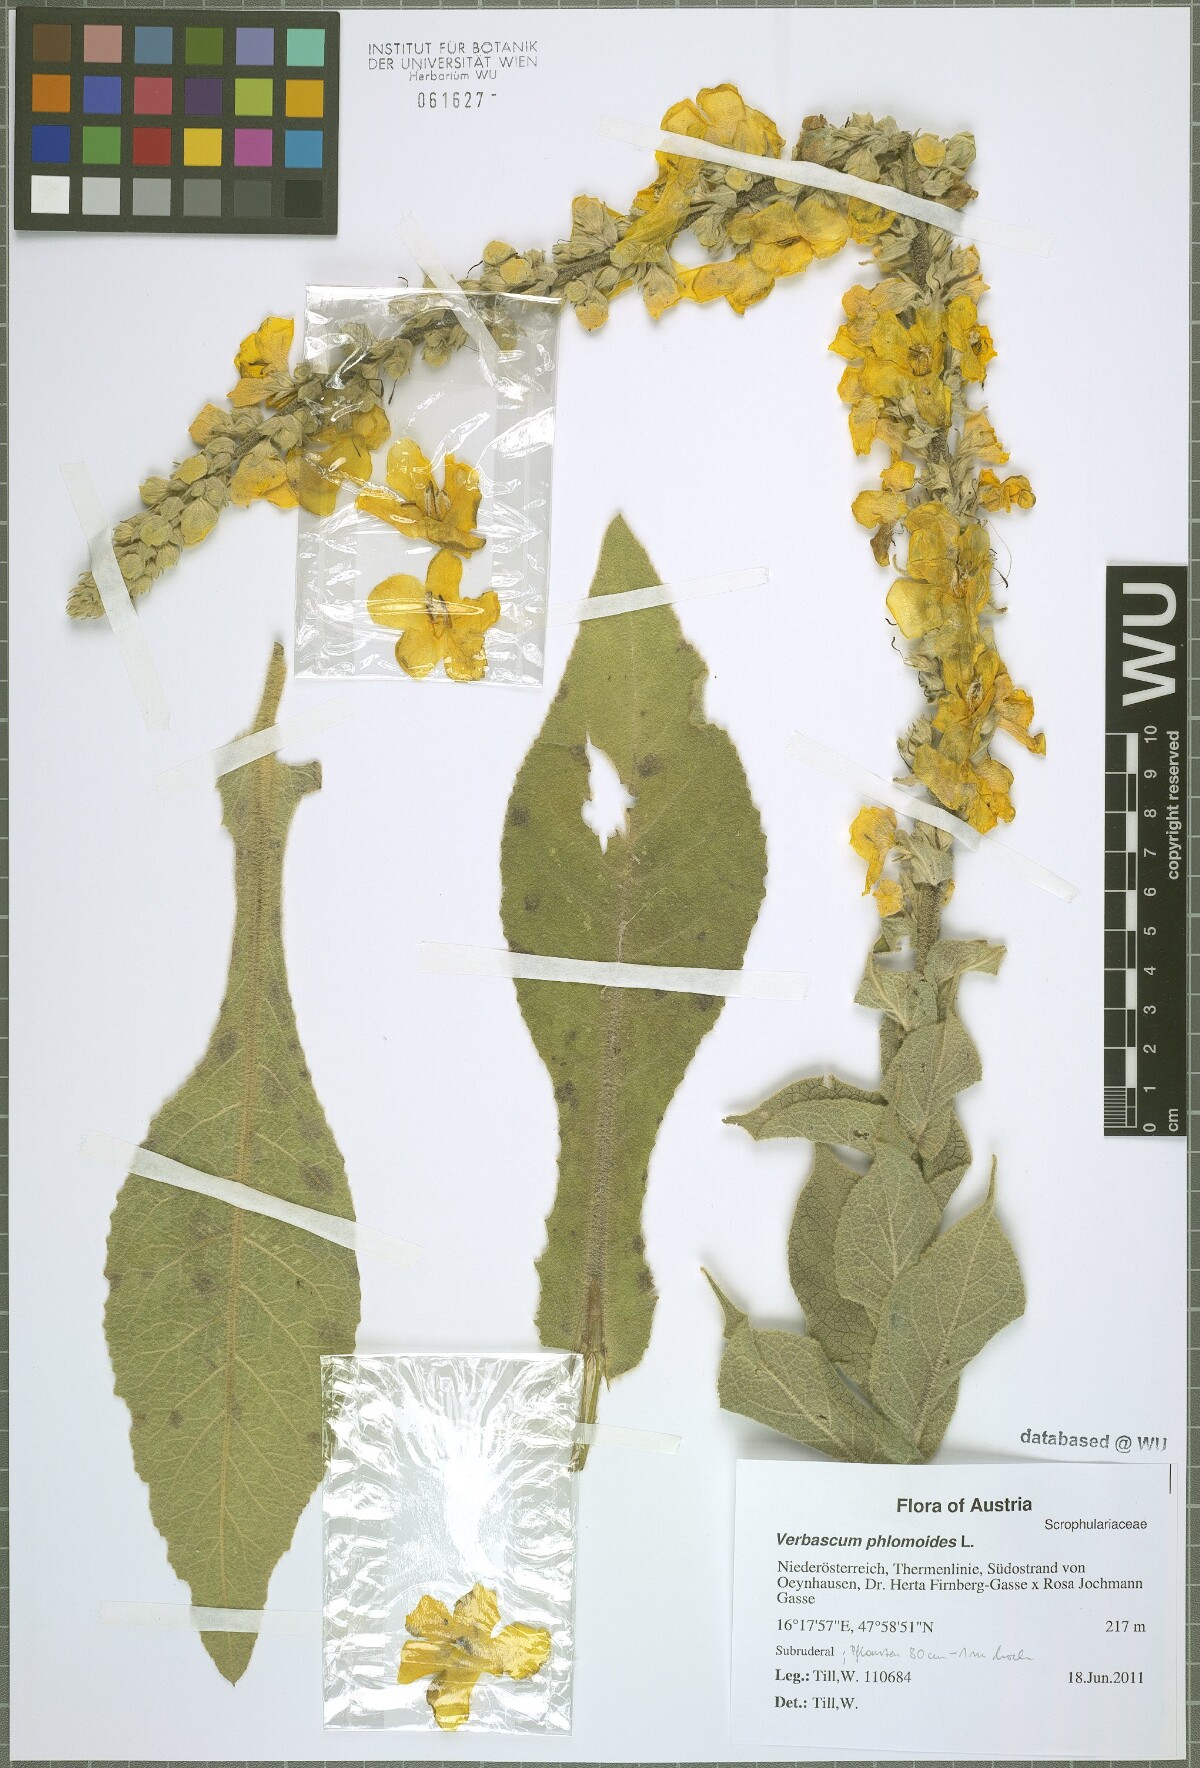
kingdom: Plantae
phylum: Tracheophyta
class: Magnoliopsida
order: Lamiales
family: Scrophulariaceae
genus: Verbascum
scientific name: Verbascum phlomoides
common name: Orange mullein
